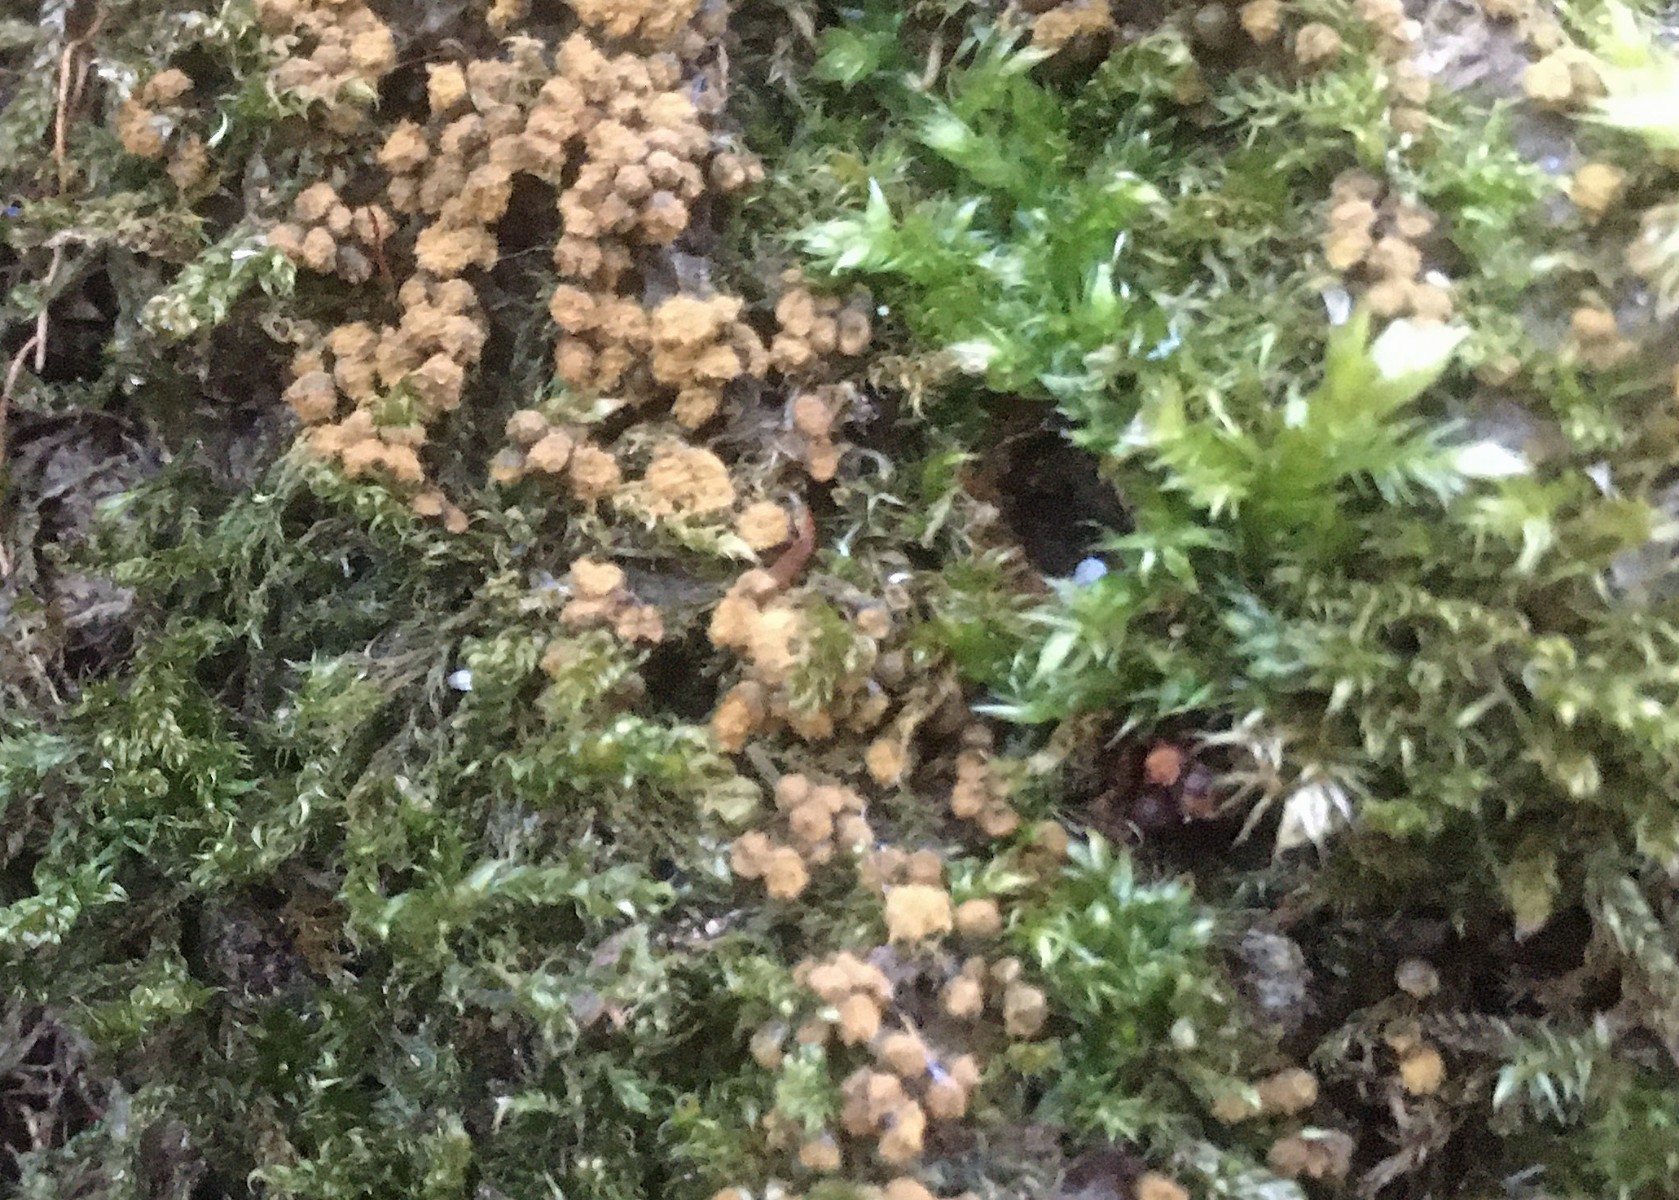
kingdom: Protozoa
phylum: Mycetozoa
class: Myxomycetes
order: Trichiales
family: Trichiaceae
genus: Trichia
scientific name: Trichia varia
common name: foranderlig hårbold
